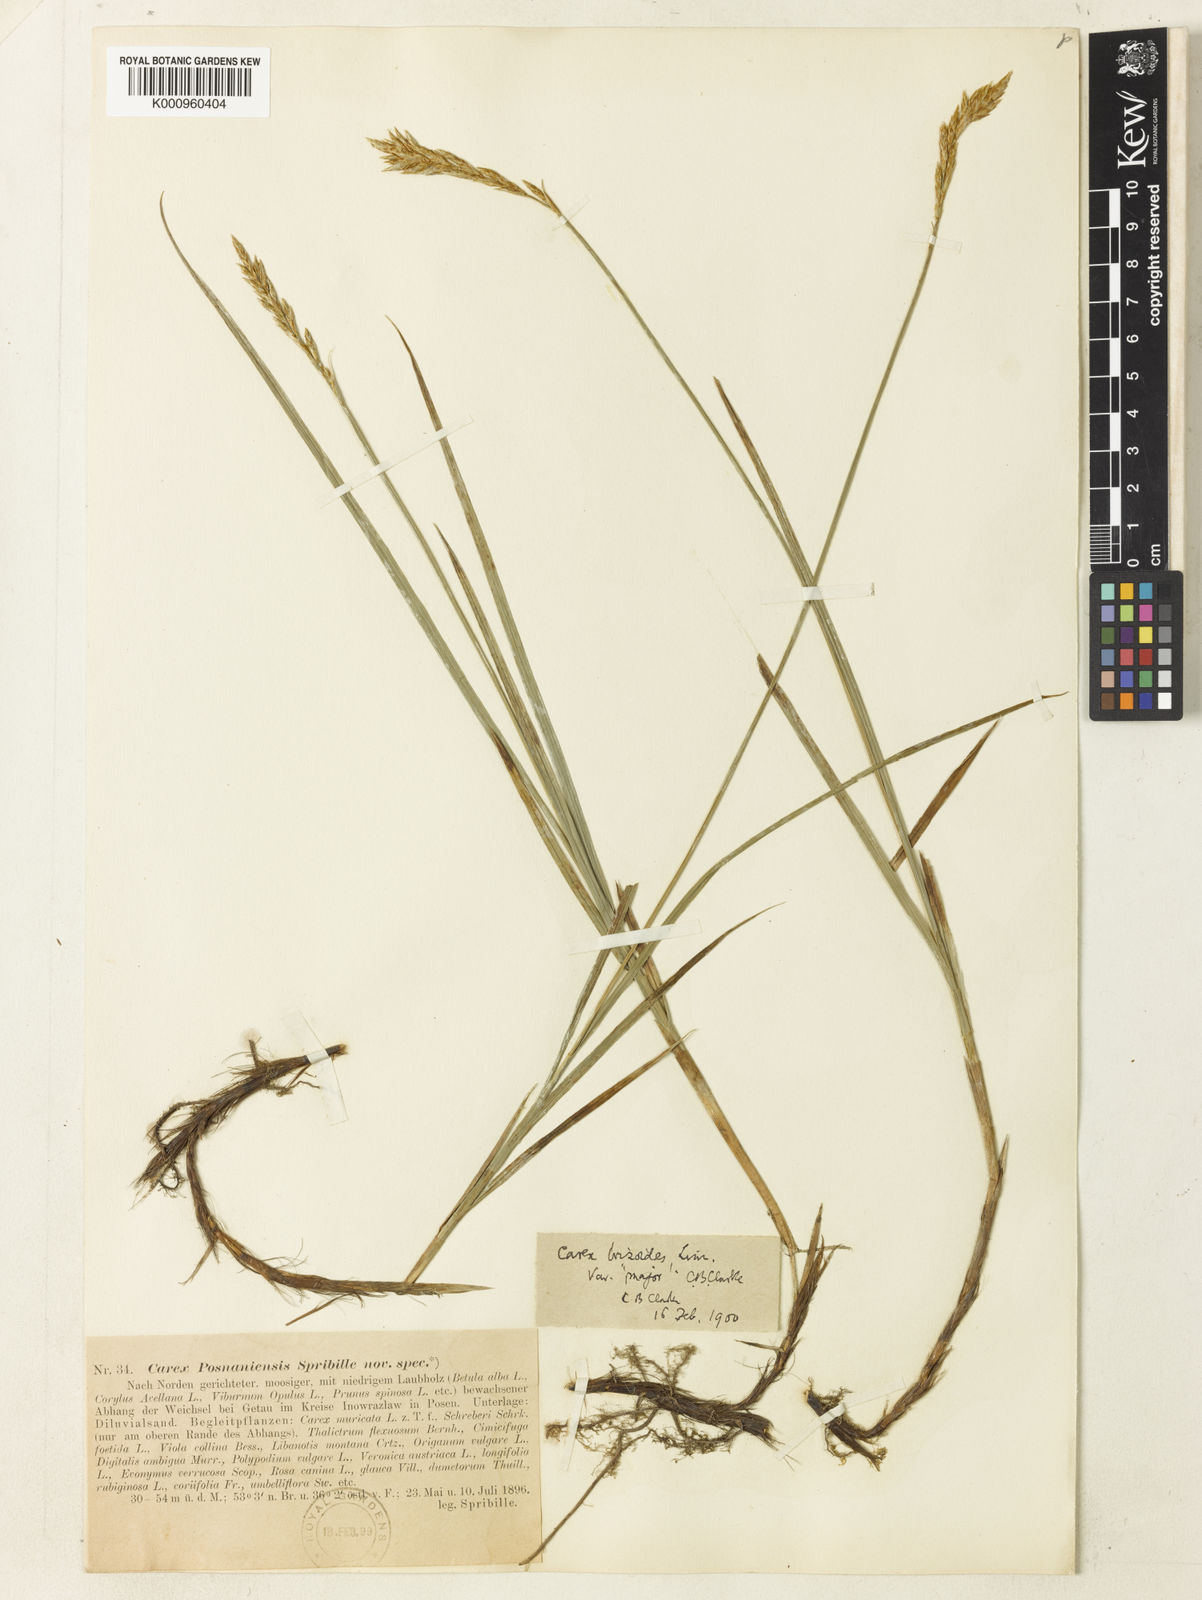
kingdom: Plantae
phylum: Tracheophyta
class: Liliopsida
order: Poales
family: Cyperaceae
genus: Carex
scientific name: Carex repens
